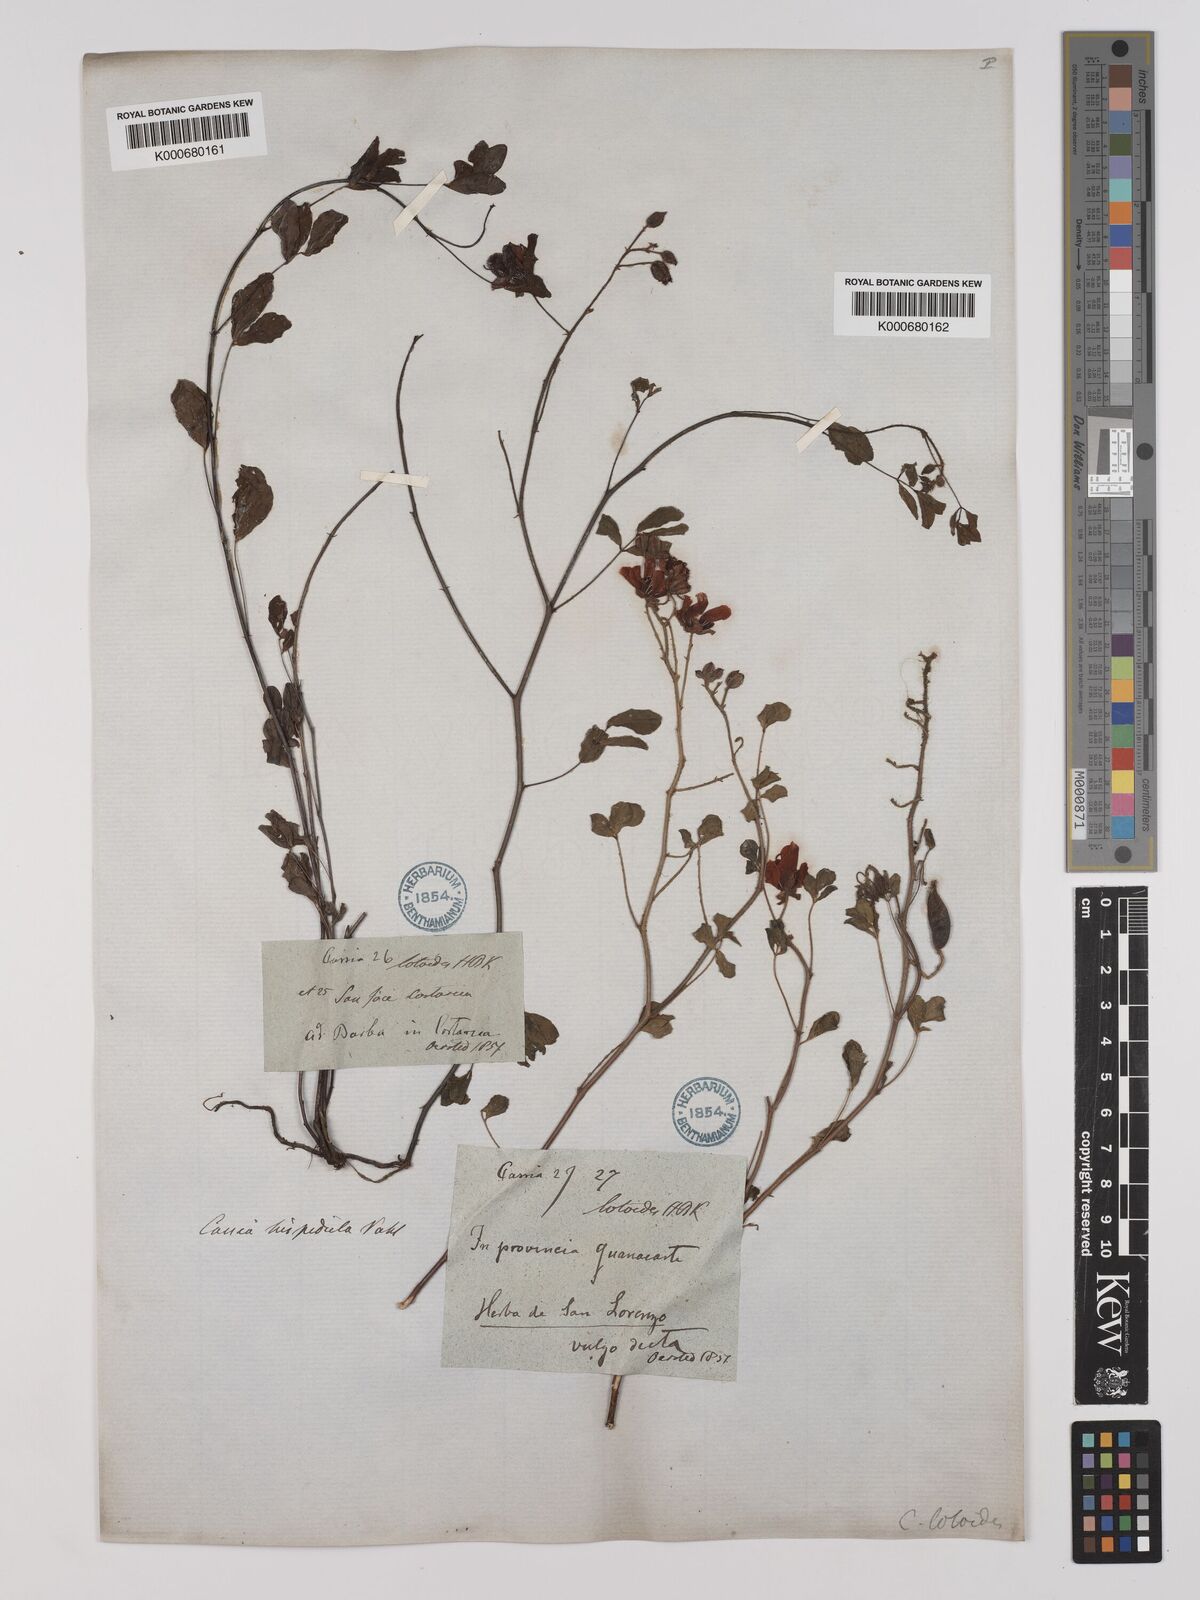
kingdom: Plantae
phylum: Tracheophyta
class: Magnoliopsida
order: Fabales
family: Fabaceae
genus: Chamaecrista
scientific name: Chamaecrista hispidula
